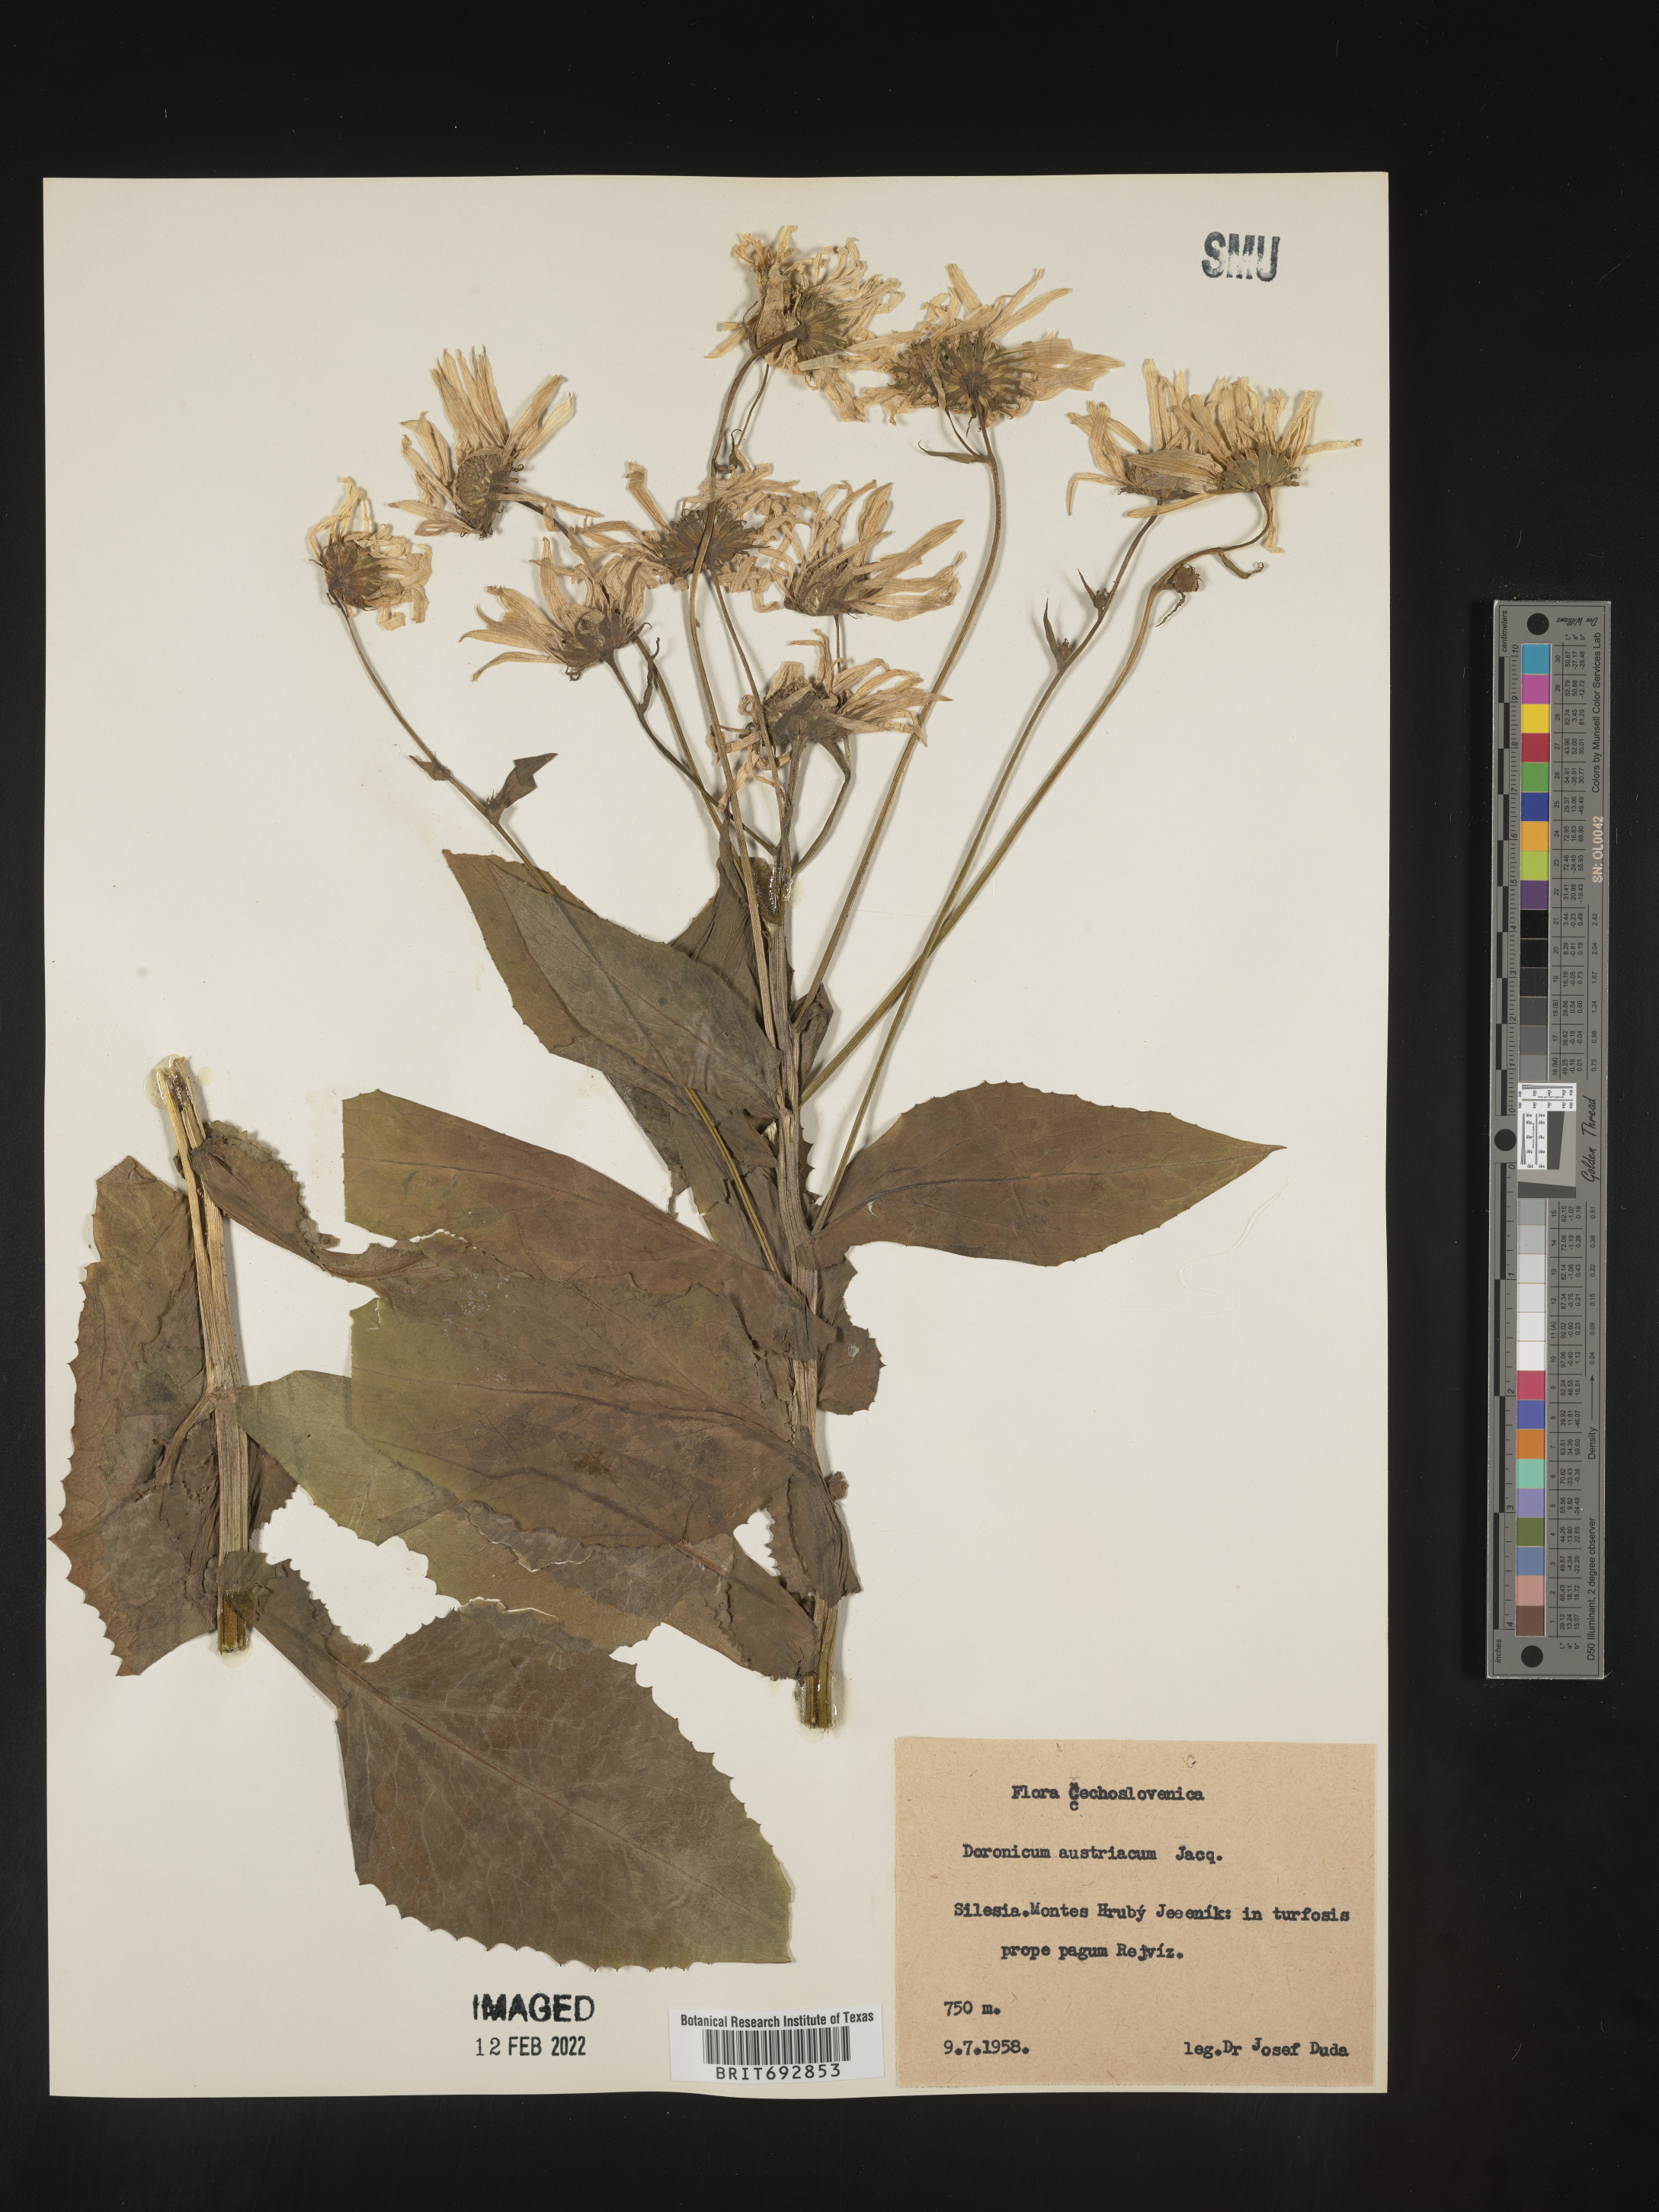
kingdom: Plantae
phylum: Tracheophyta
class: Magnoliopsida
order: Asterales
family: Asteraceae
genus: Doronicum
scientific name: Doronicum
